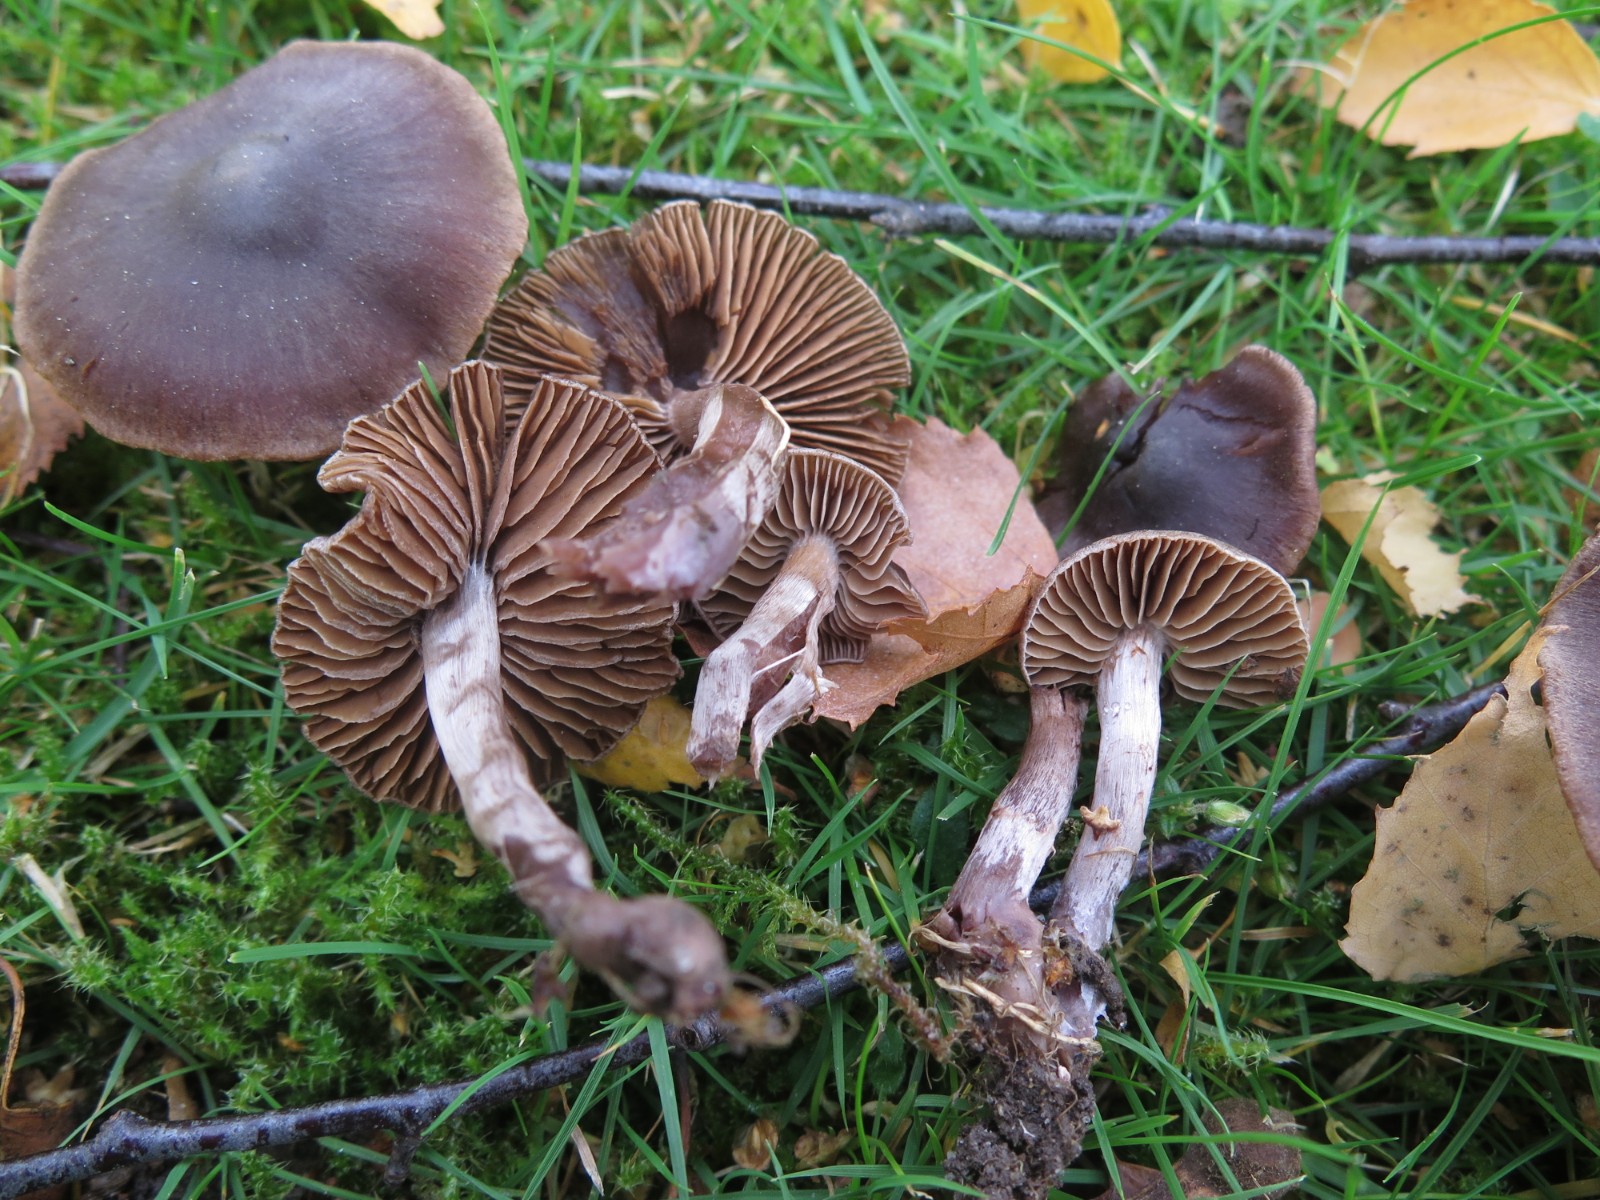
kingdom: Fungi
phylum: Basidiomycota
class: Agaricomycetes
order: Agaricales
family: Cortinariaceae
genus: Cortinarius
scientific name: Cortinarius vernus
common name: sommer-slørhat
